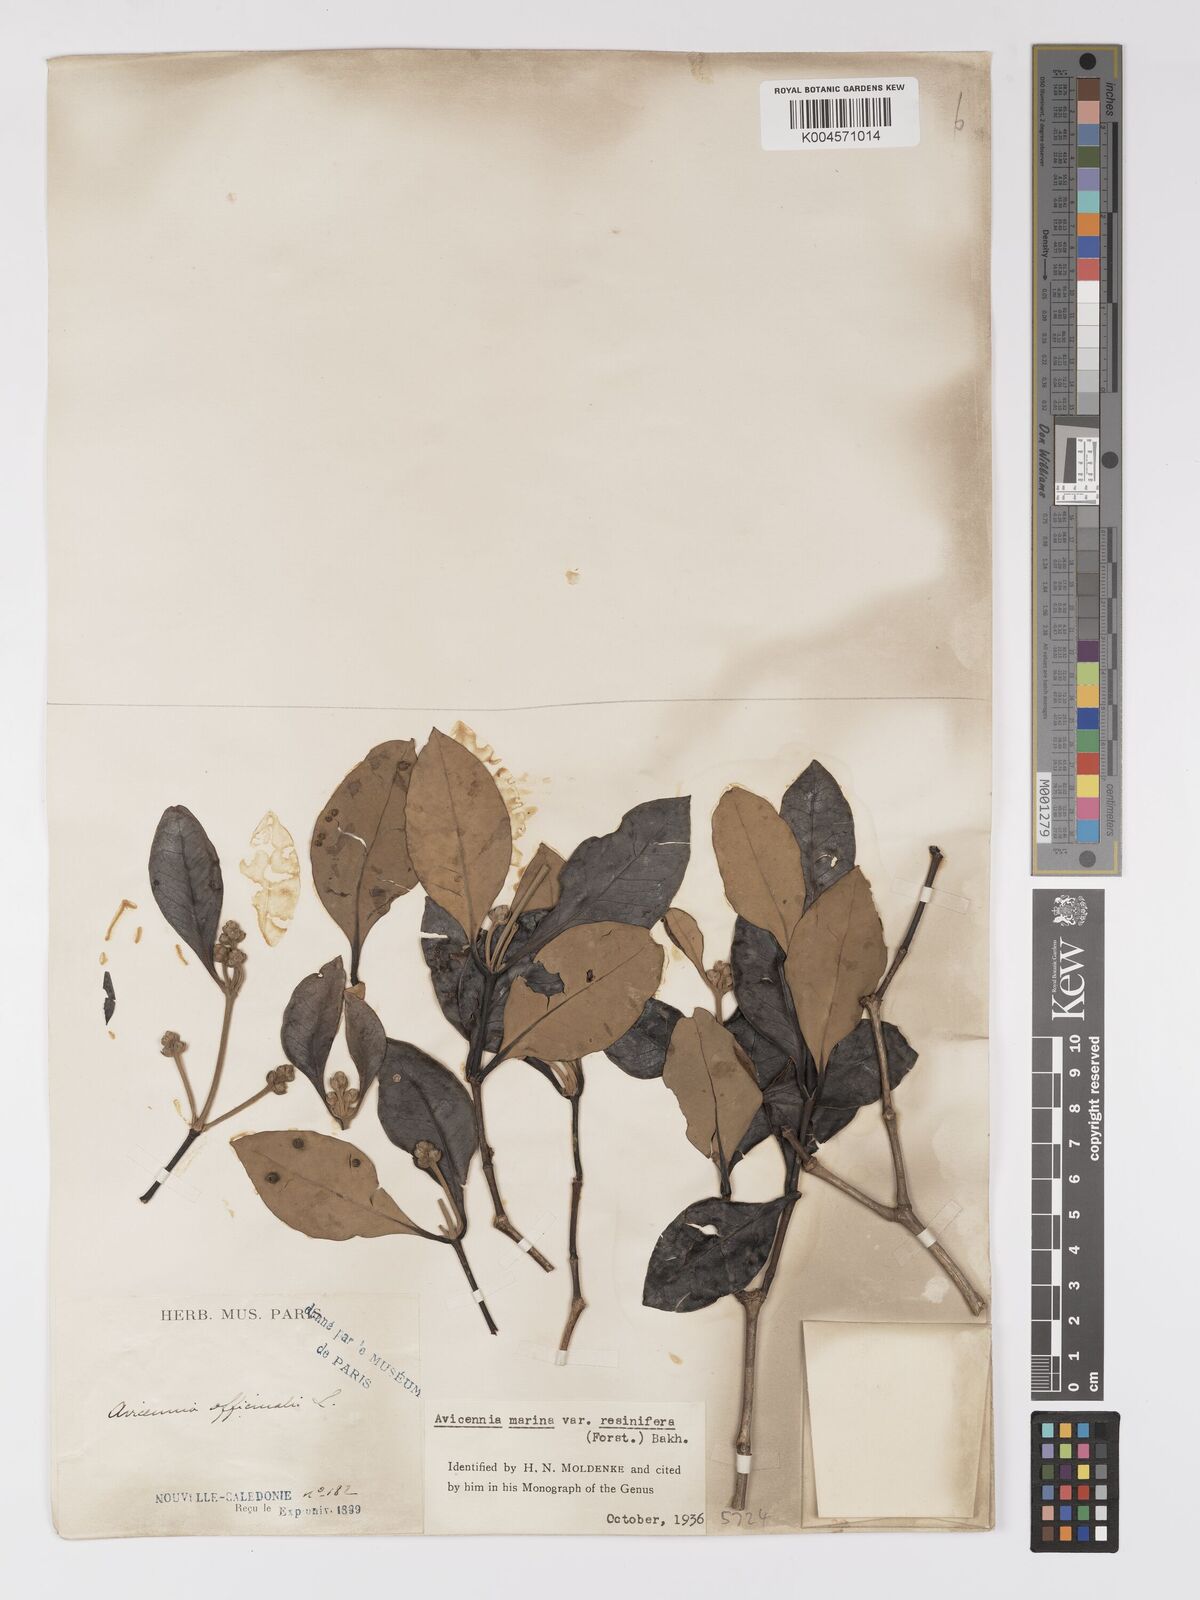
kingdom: Plantae
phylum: Tracheophyta
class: Magnoliopsida
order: Lamiales
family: Acanthaceae
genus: Avicennia
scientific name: Avicennia marina
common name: Gray mangrove
